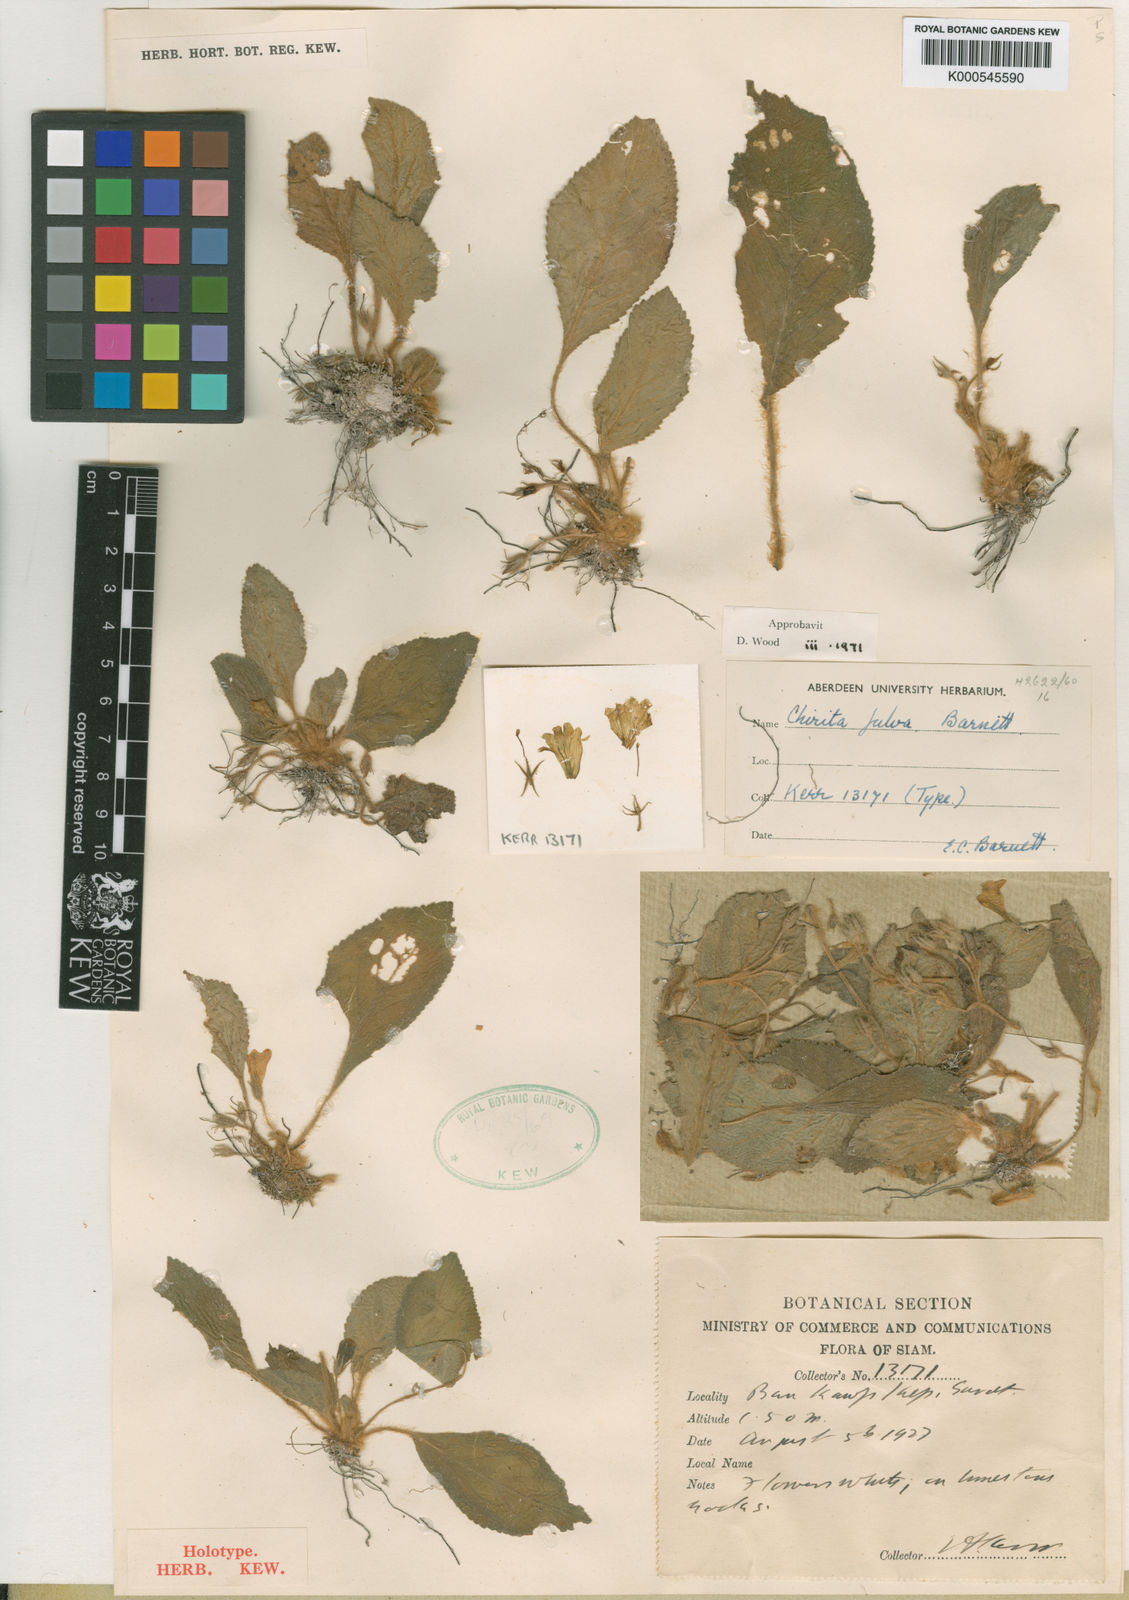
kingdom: Plantae
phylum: Tracheophyta
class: Magnoliopsida
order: Lamiales
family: Gesneriaceae
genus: Damrongia
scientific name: Damrongia fulva
